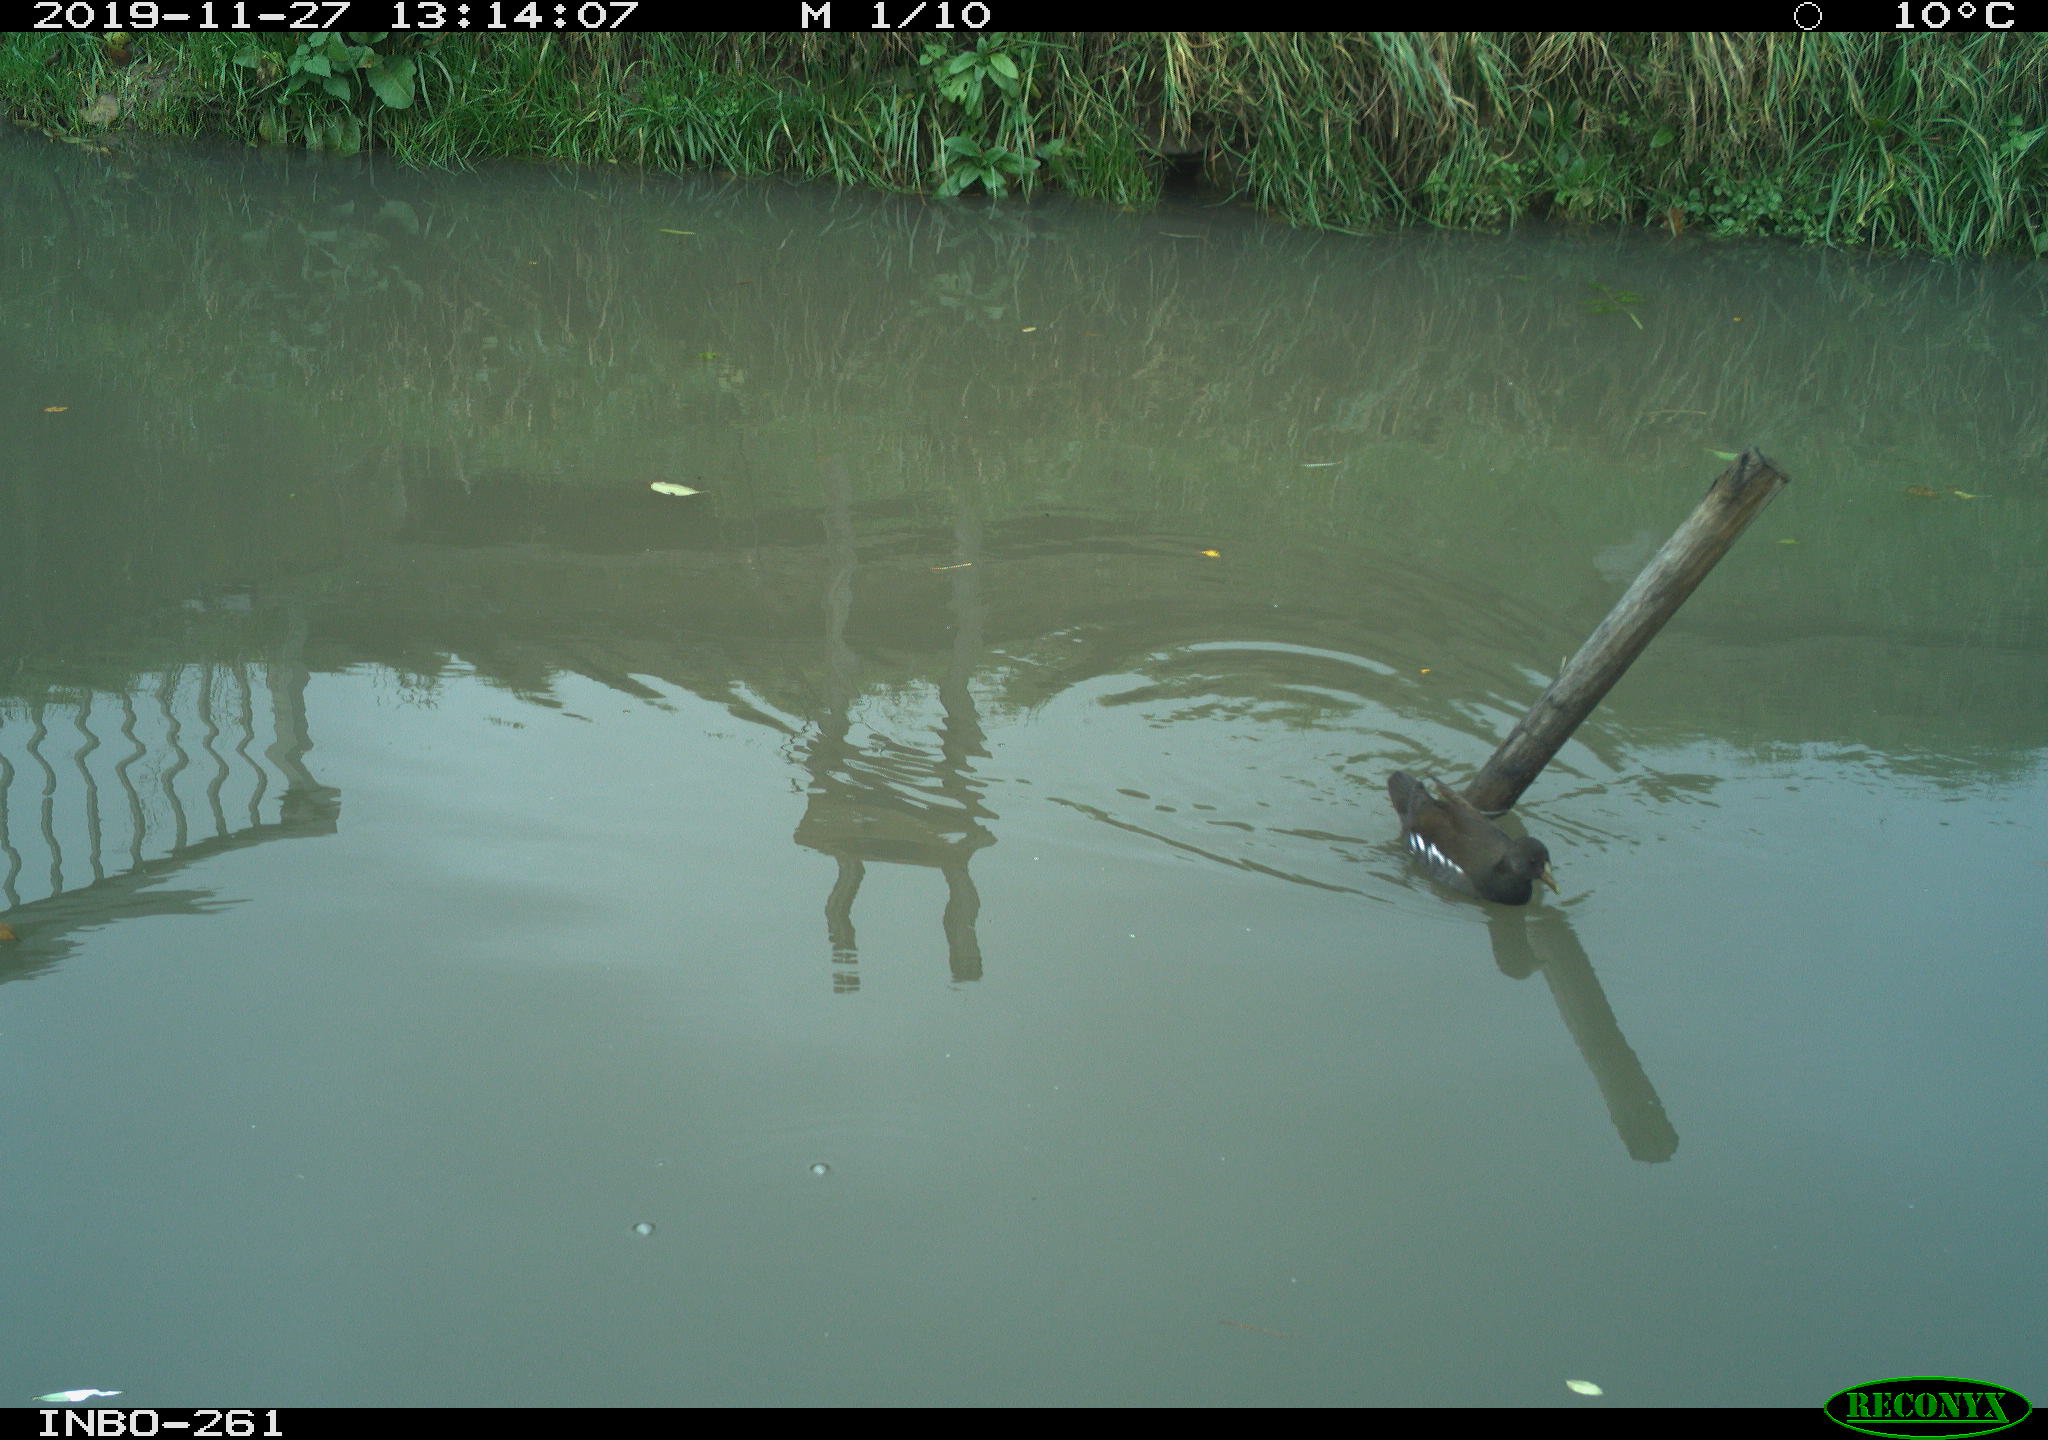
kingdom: Animalia
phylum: Chordata
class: Aves
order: Gruiformes
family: Rallidae
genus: Gallinula
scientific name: Gallinula chloropus
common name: Common moorhen
